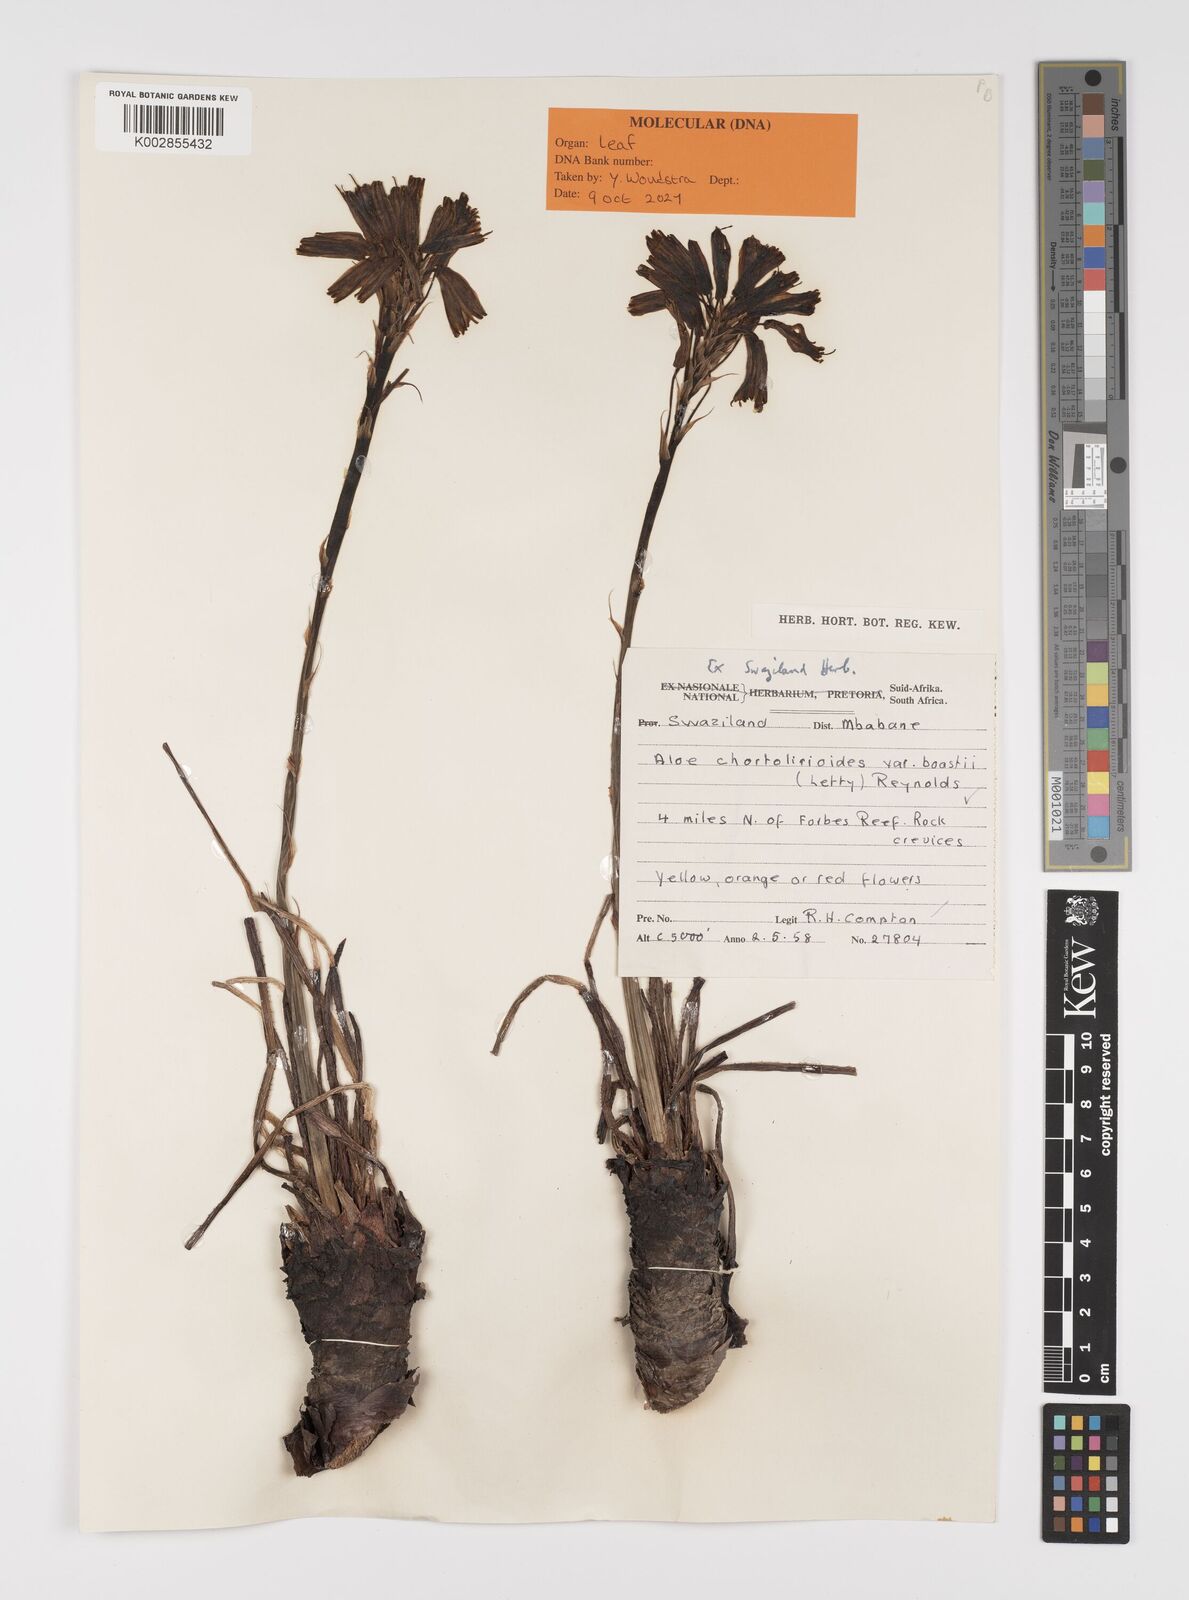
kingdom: Plantae
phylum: Tracheophyta
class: Liliopsida
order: Asparagales
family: Asphodelaceae
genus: Aloe
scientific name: Aloe chortolirioides
